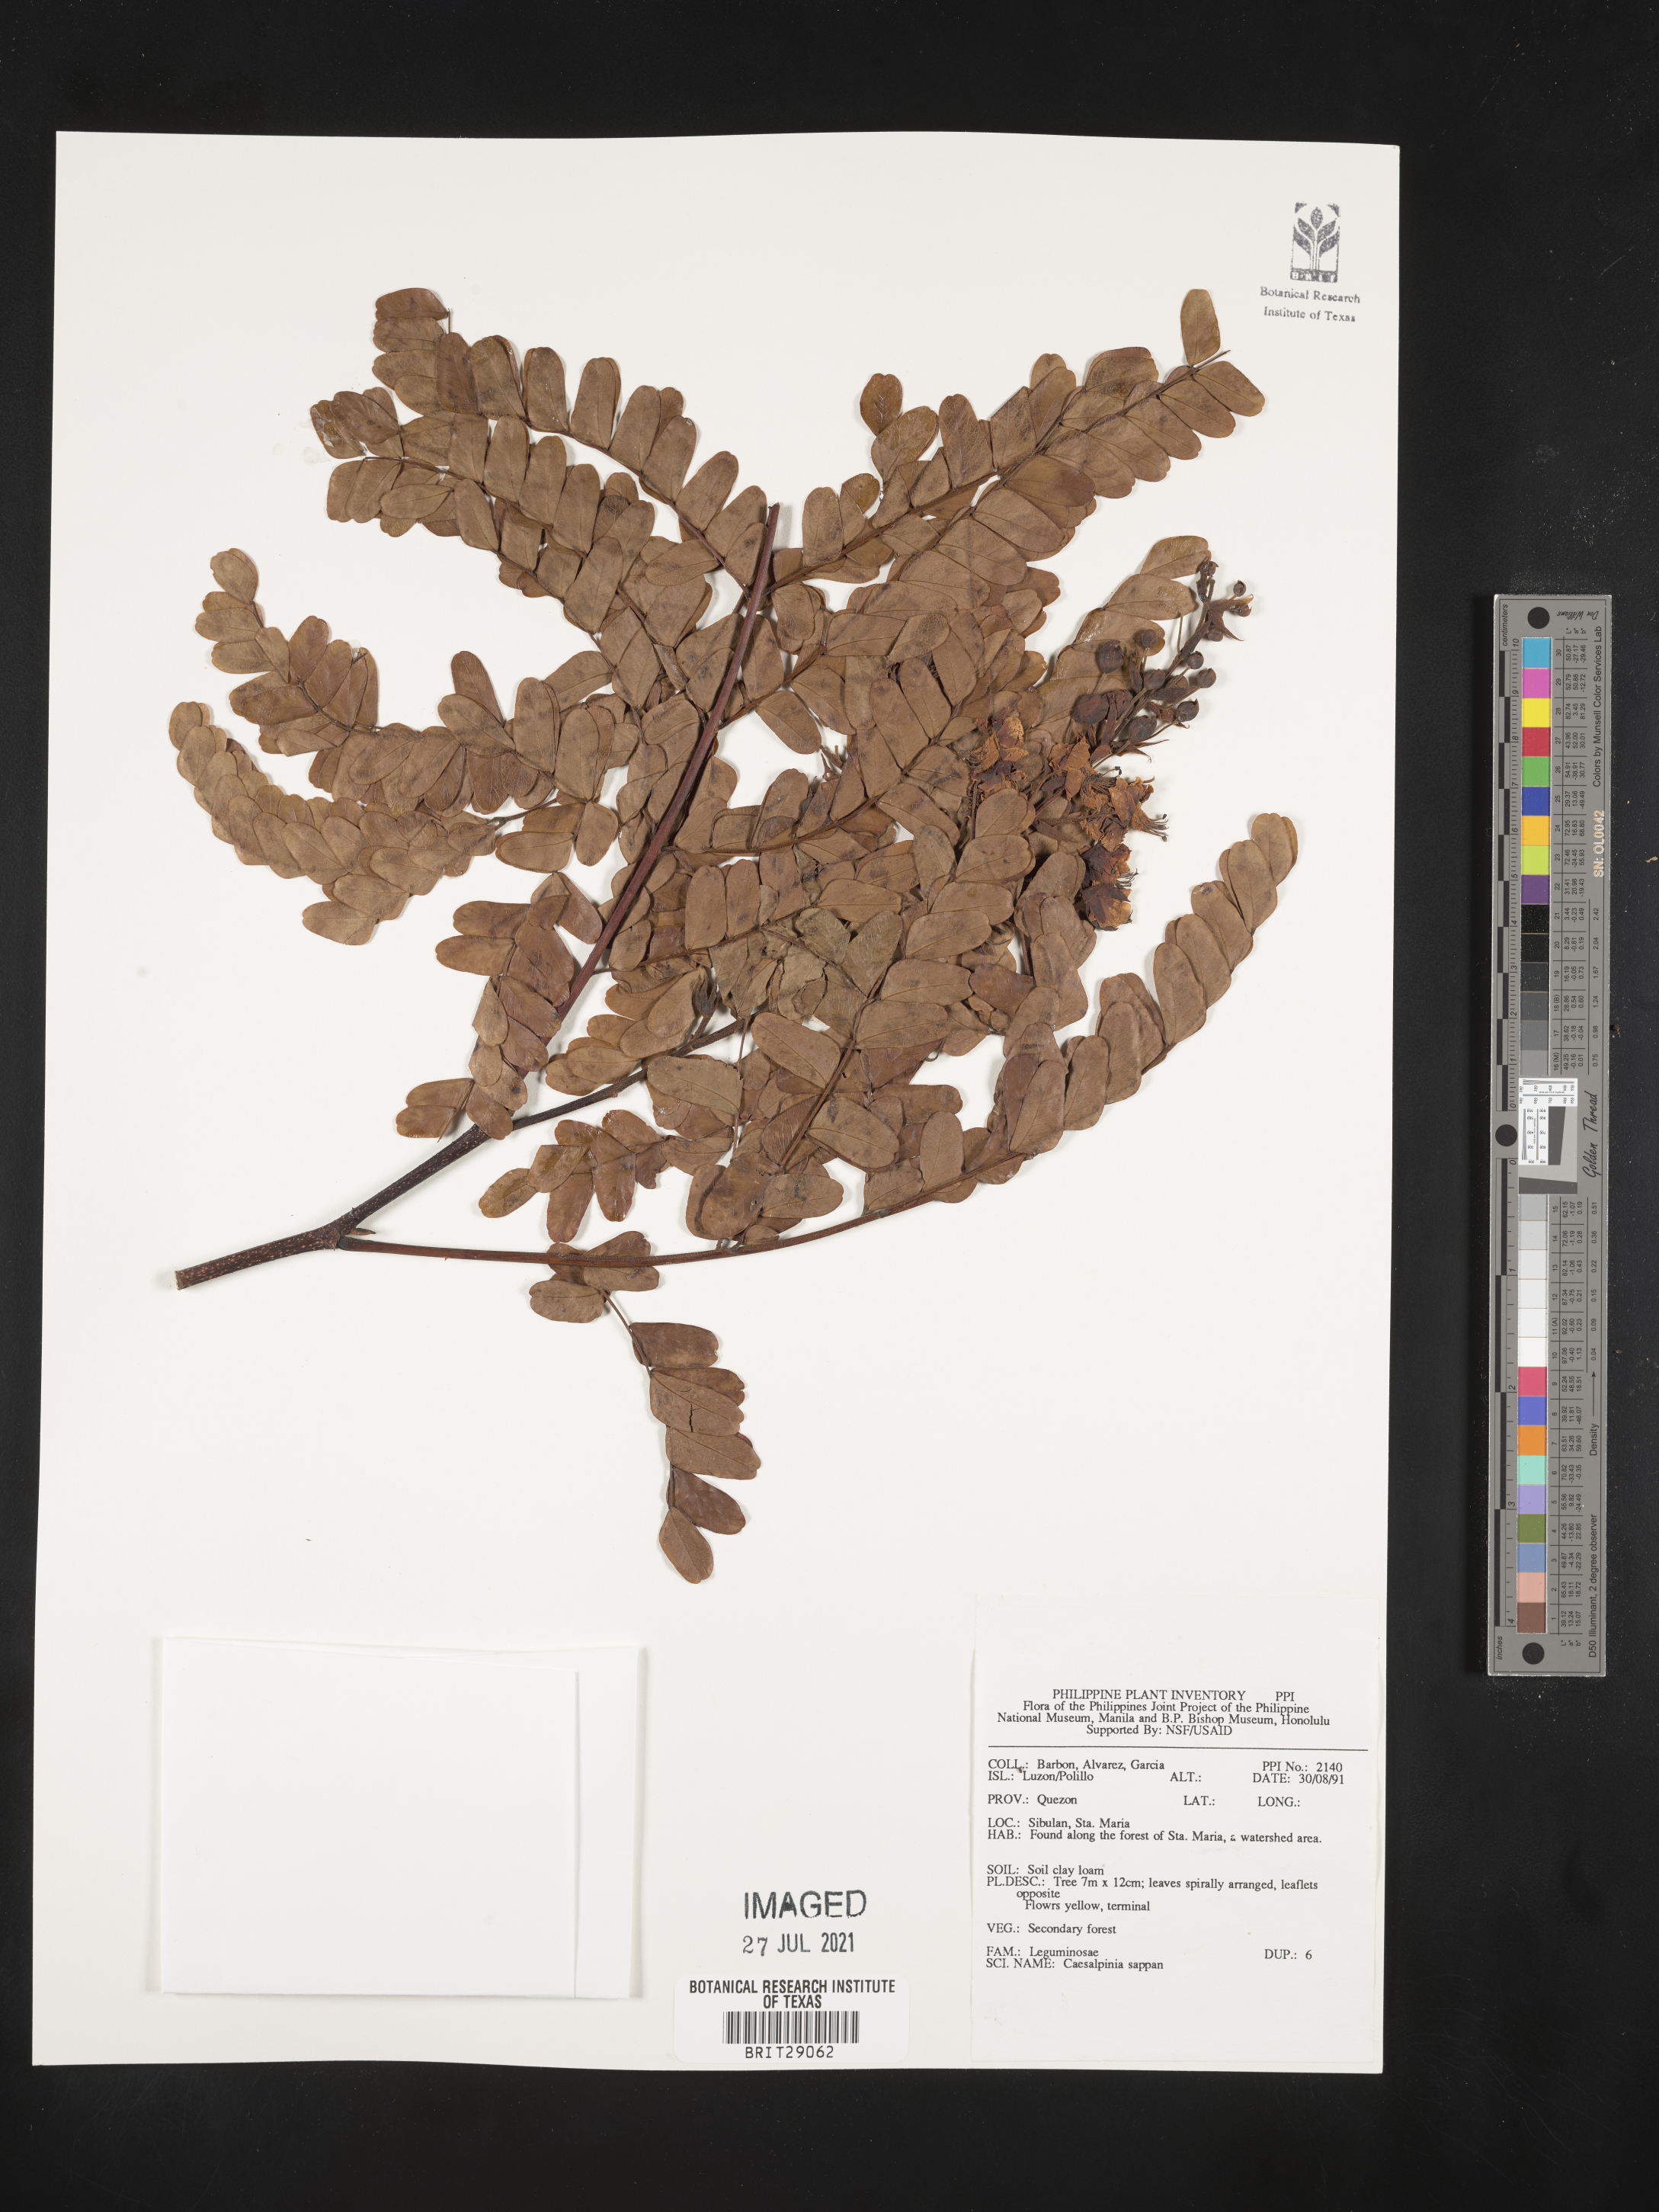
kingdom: Plantae
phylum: Tracheophyta
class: Magnoliopsida
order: Fabales
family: Fabaceae
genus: Biancaea
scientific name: Biancaea sappan
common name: Sappan
